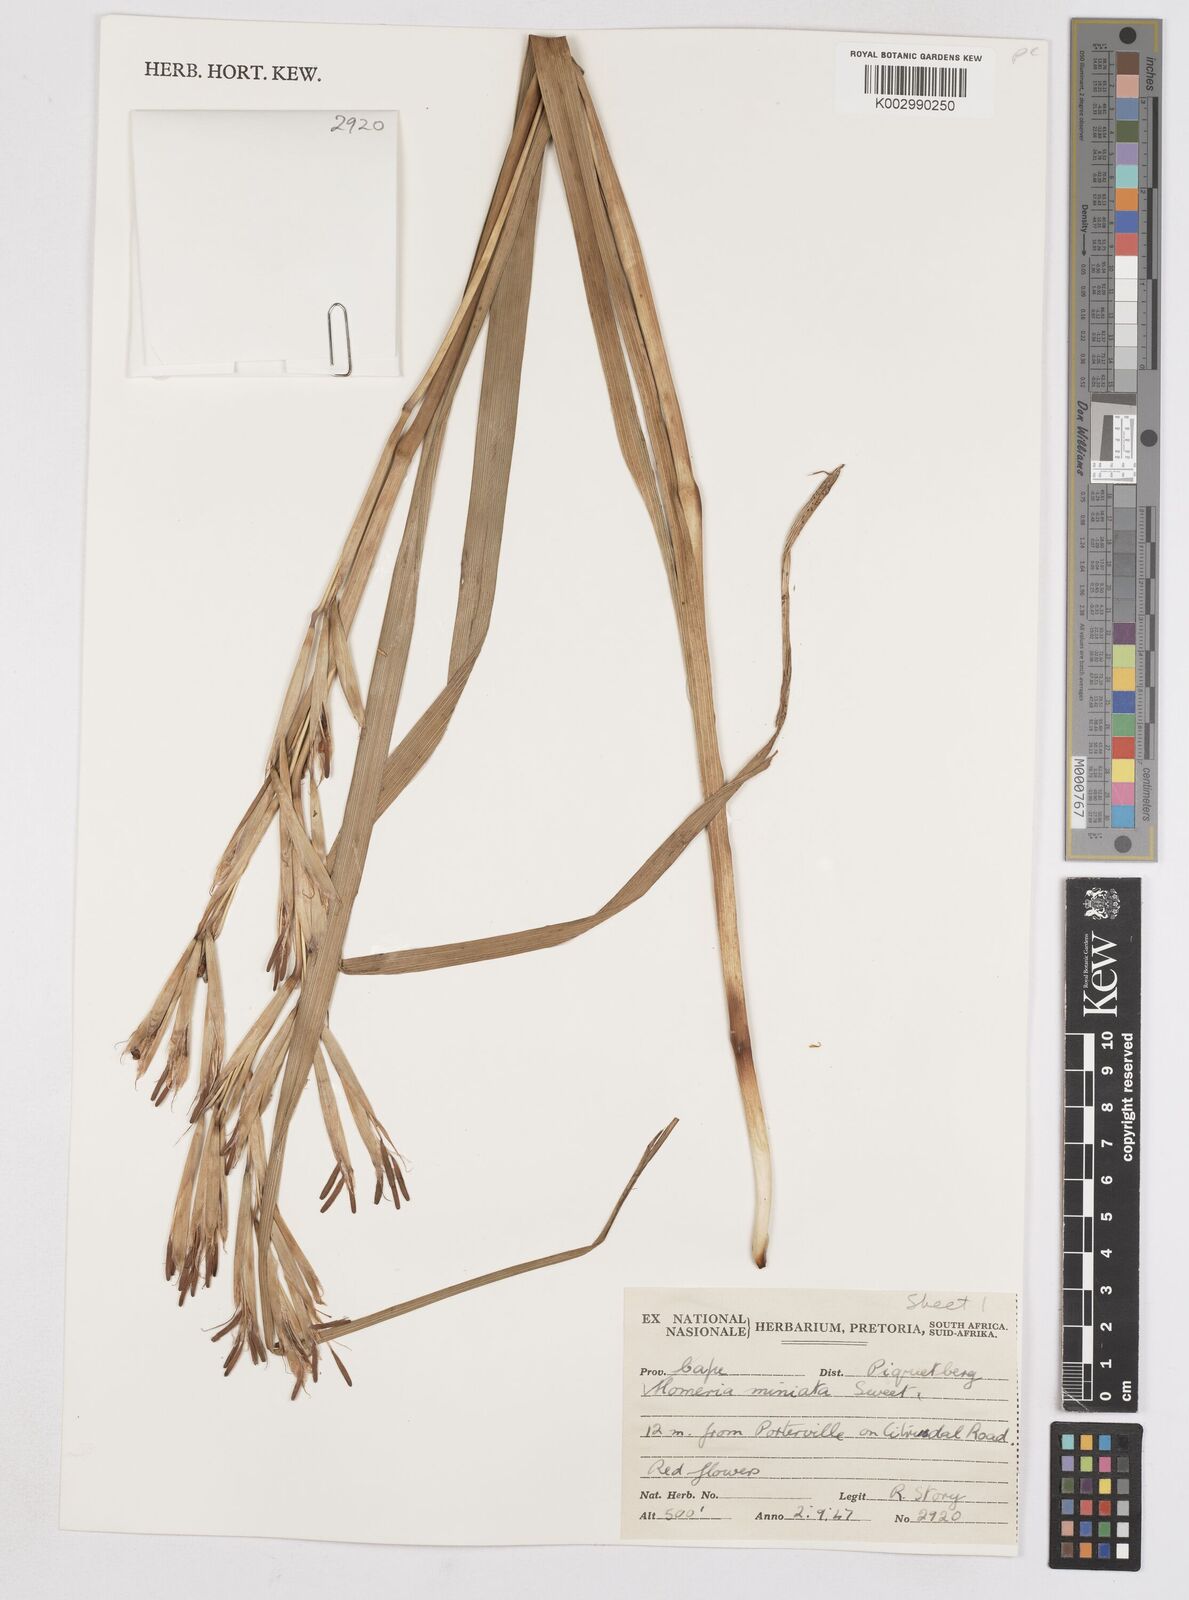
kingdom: Plantae
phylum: Tracheophyta
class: Liliopsida
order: Asparagales
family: Iridaceae
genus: Moraea
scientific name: Moraea miniata
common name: Two-leaf cape-tulip
